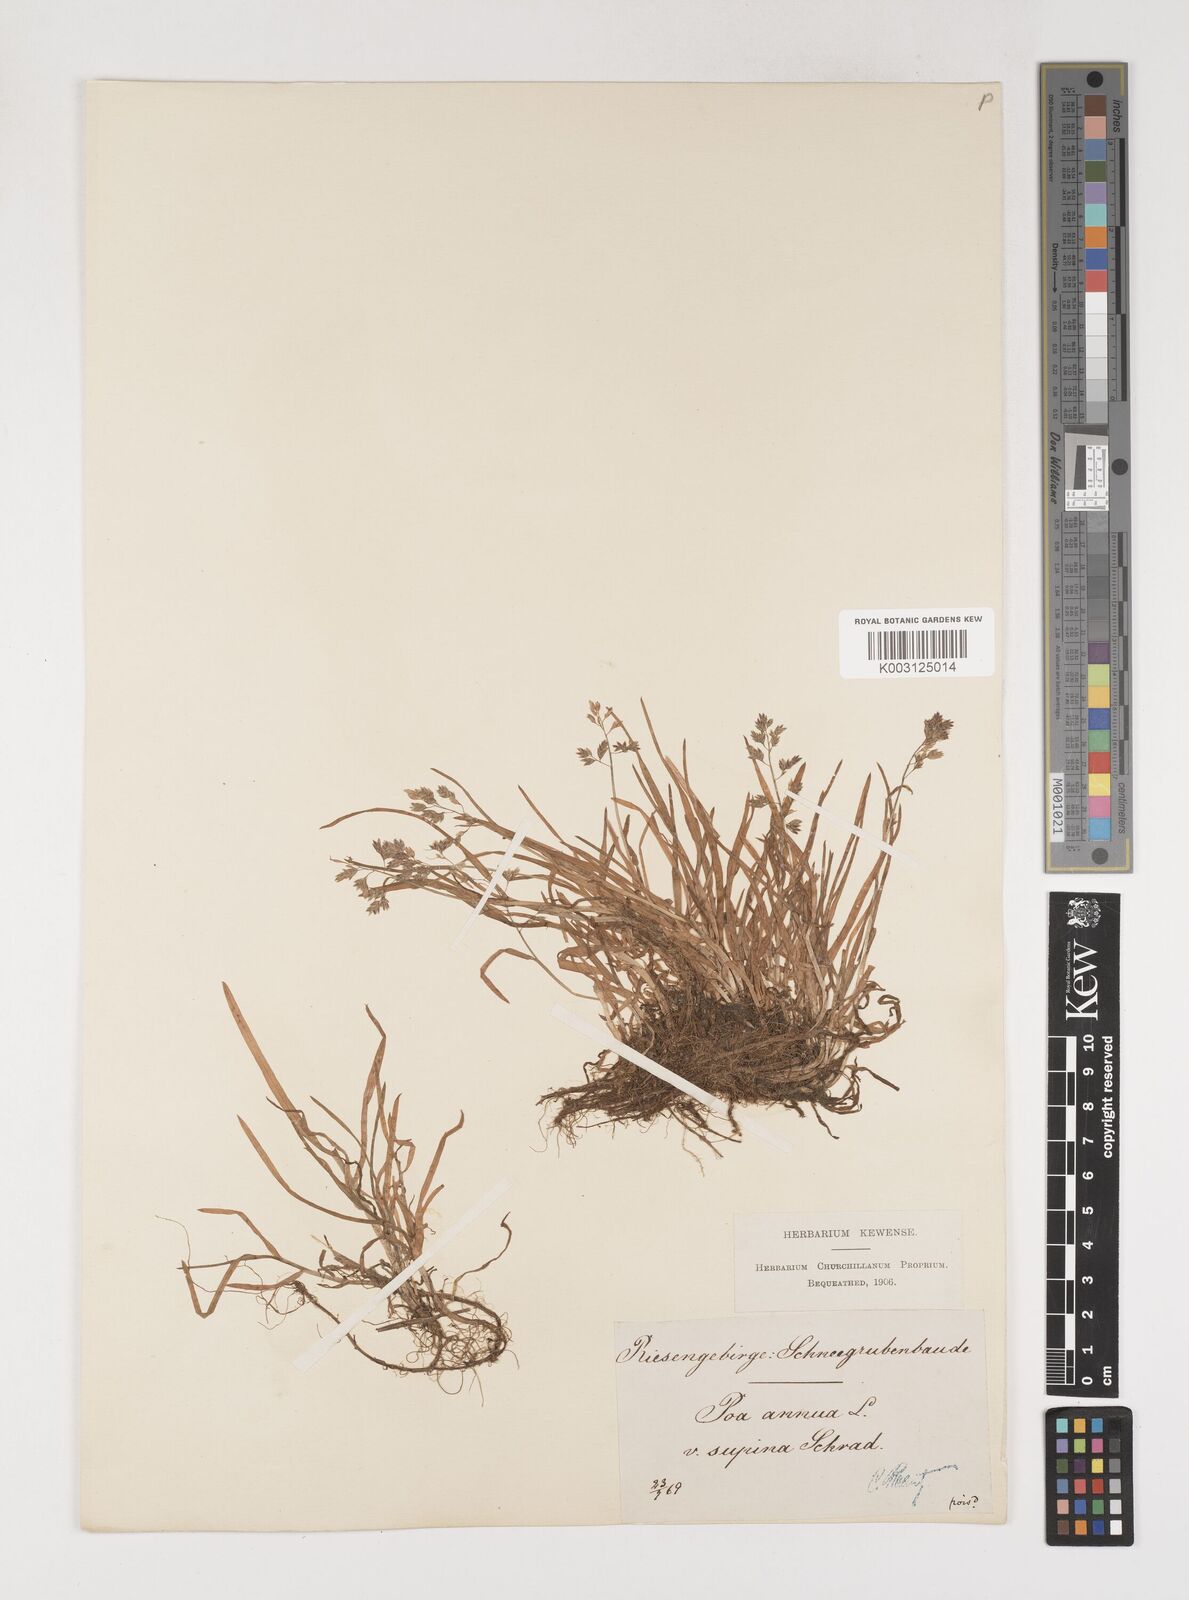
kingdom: Plantae
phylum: Tracheophyta
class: Liliopsida
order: Poales
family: Poaceae
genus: Poa
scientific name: Poa supina
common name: Supina bluegrass
